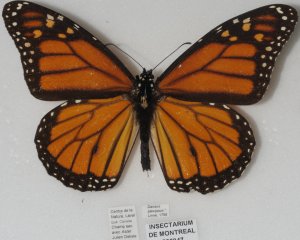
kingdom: Animalia
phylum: Arthropoda
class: Insecta
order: Lepidoptera
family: Nymphalidae
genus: Danaus
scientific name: Danaus plexippus
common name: Monarch
